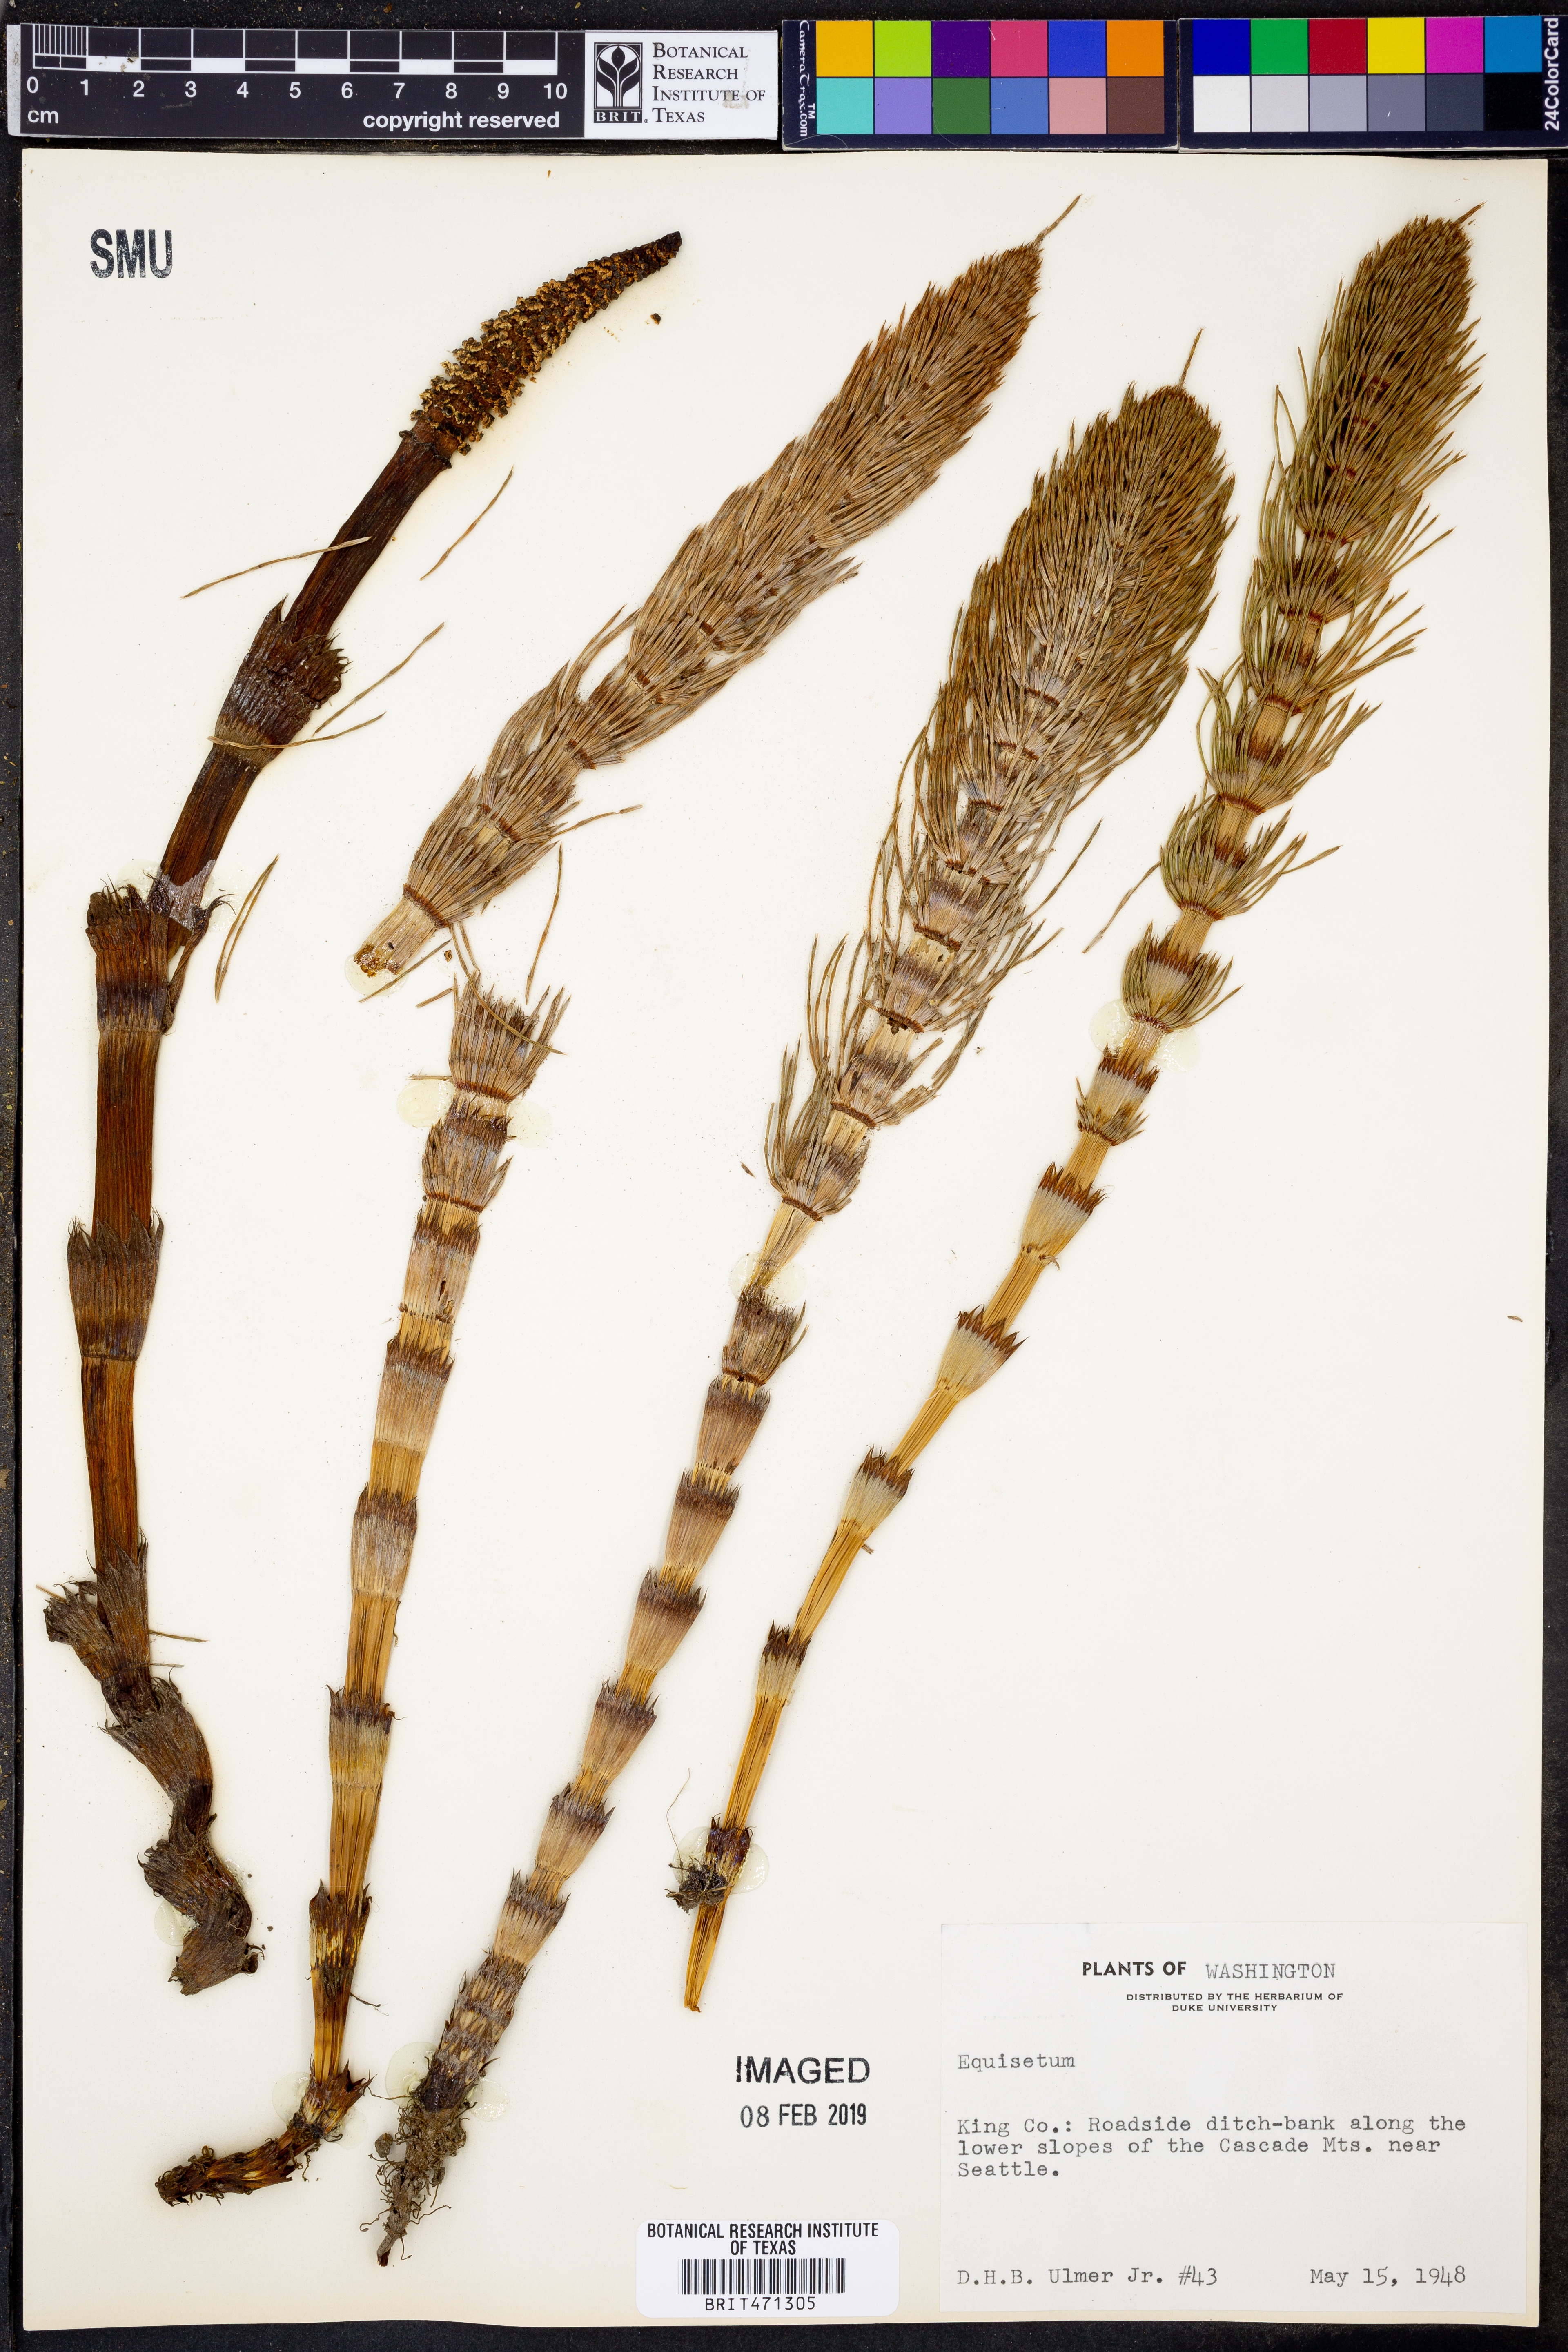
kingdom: Plantae
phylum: Tracheophyta
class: Polypodiopsida
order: Equisetales
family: Equisetaceae
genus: Equisetum
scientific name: Equisetum
